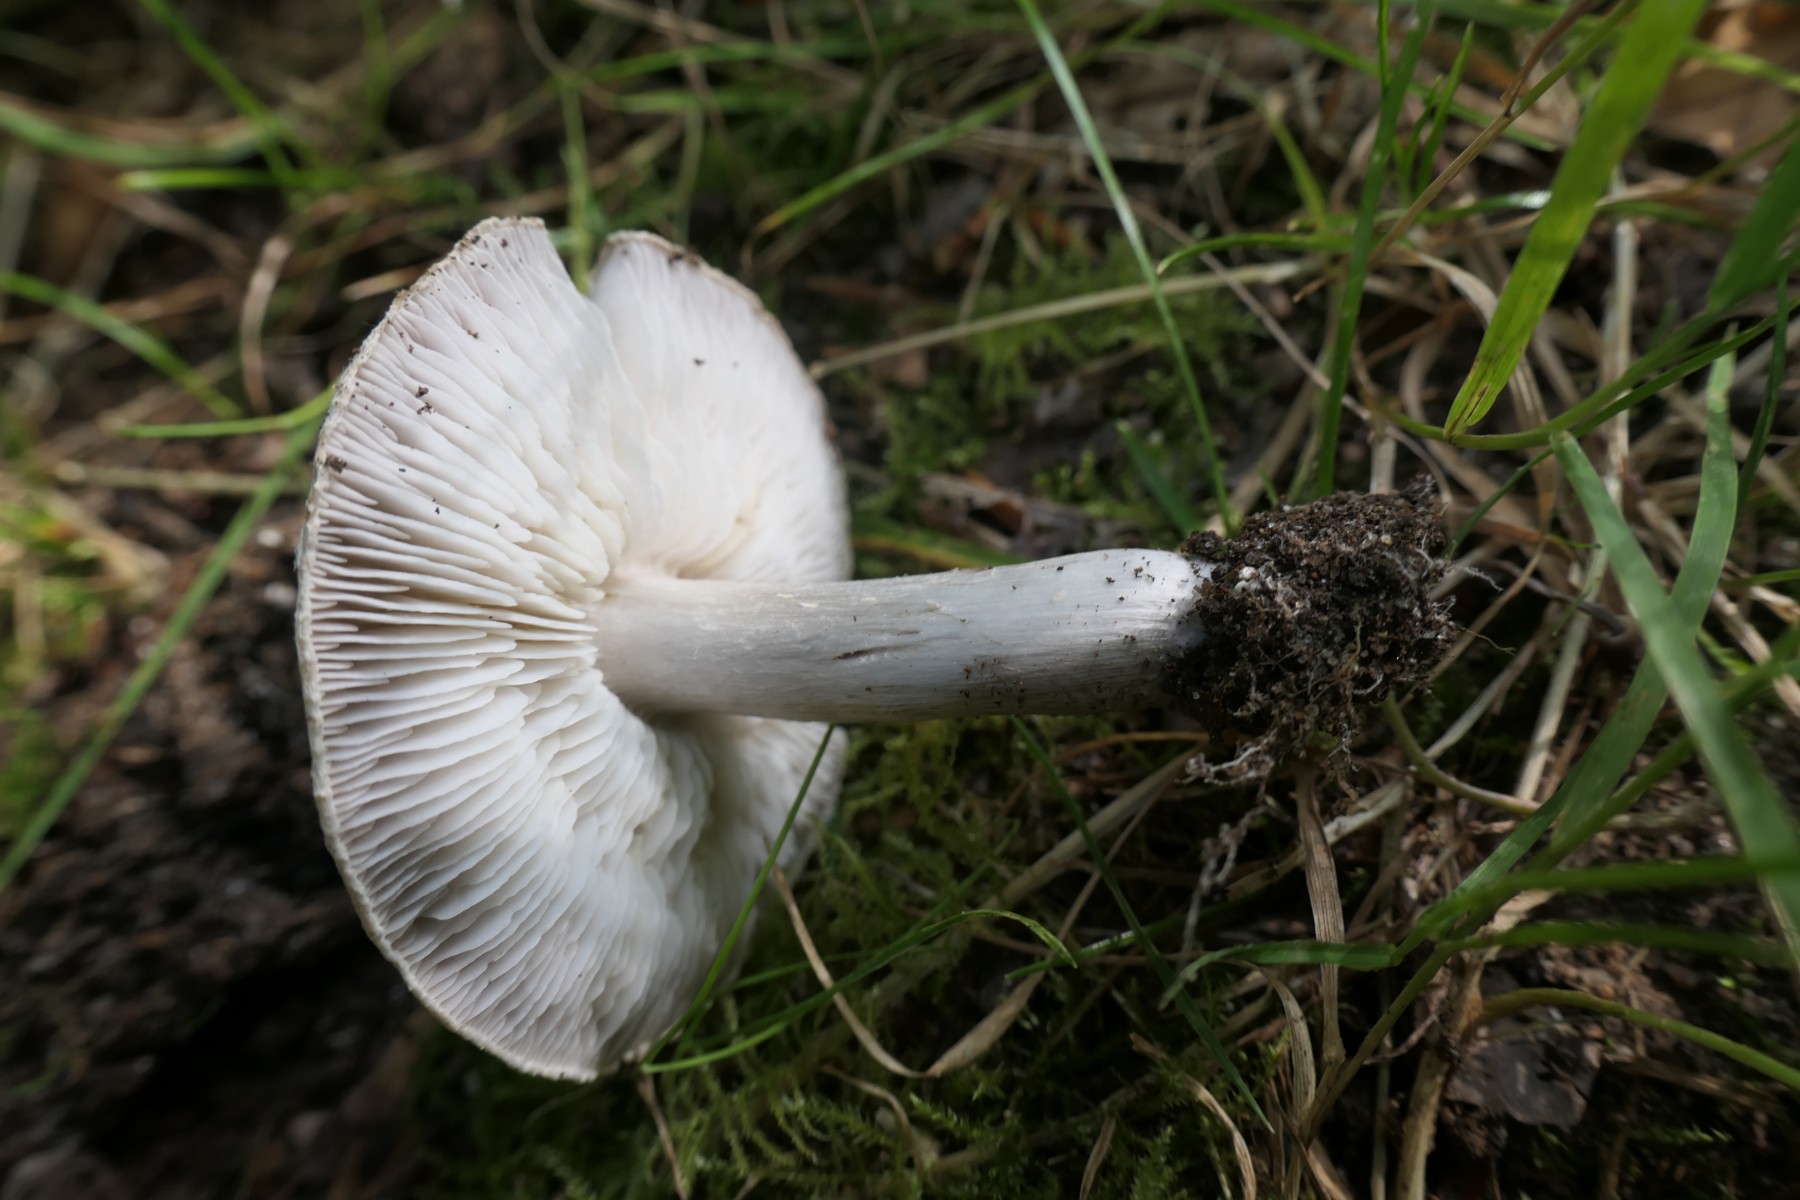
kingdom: Fungi
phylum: Basidiomycota
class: Agaricomycetes
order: Agaricales
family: Tricholomataceae
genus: Tricholoma
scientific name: Tricholoma scalpturatum
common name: gulplettet ridderhat
